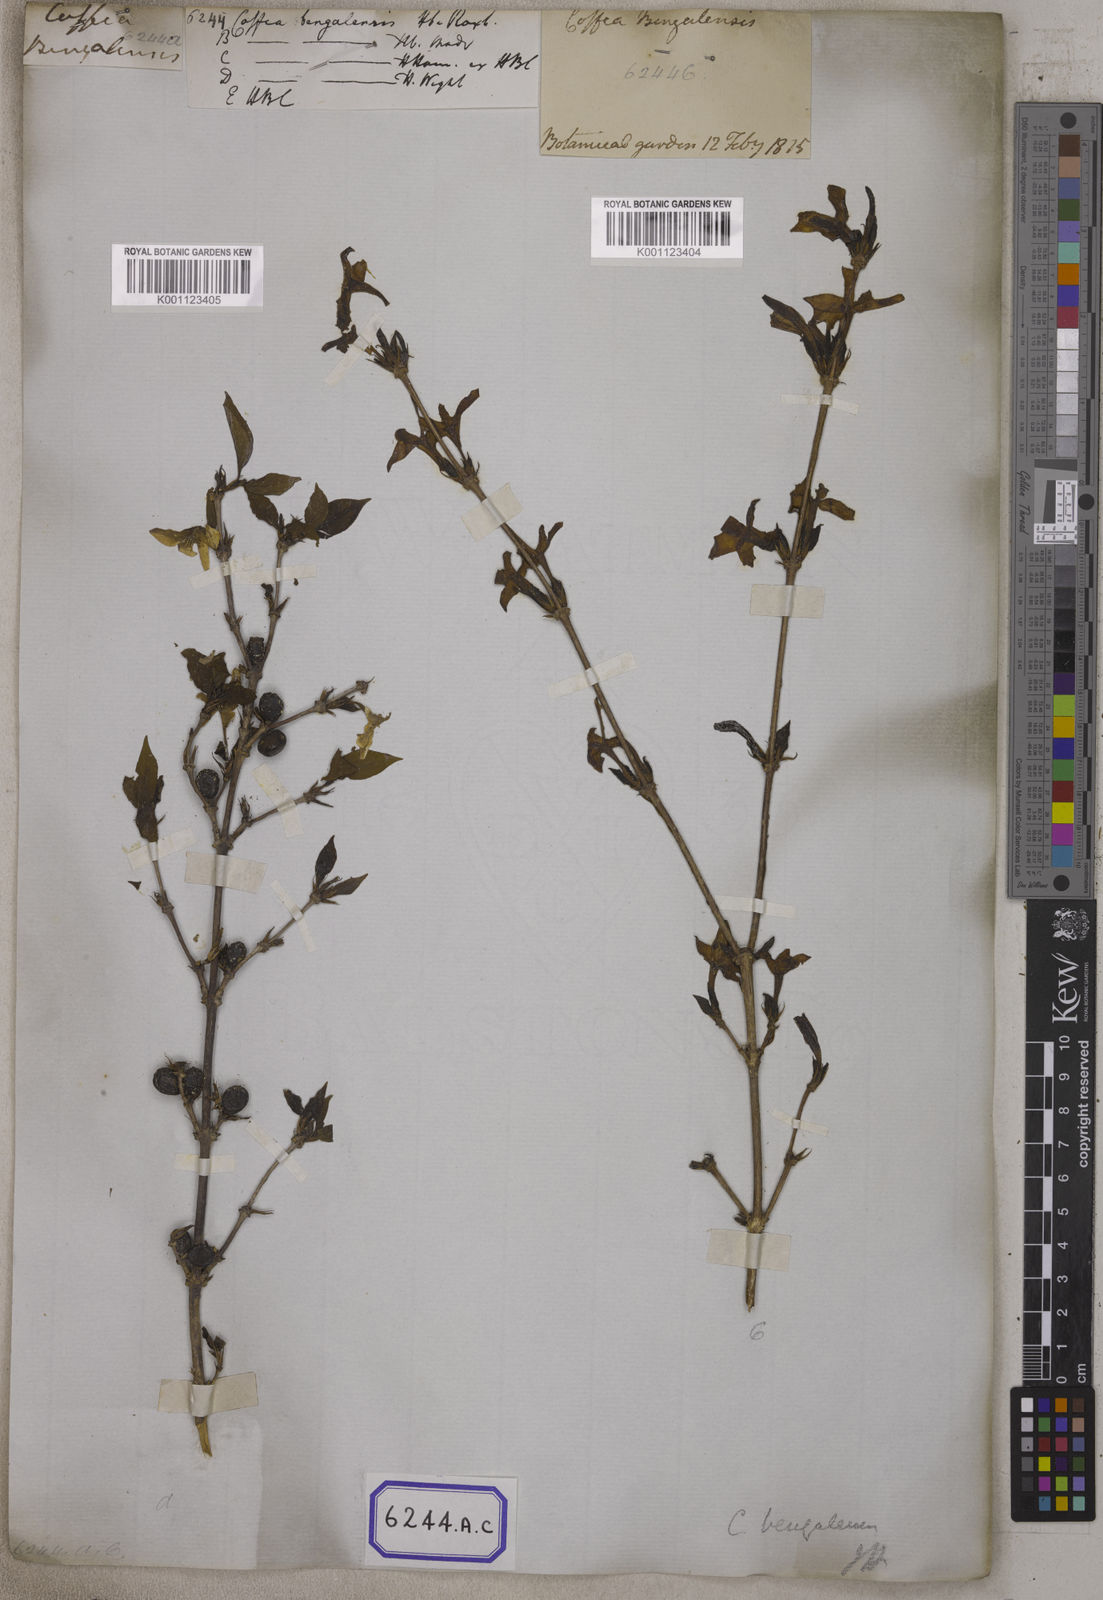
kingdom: Plantae
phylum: Tracheophyta
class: Magnoliopsida
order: Gentianales
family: Rubiaceae
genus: Coffea
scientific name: Coffea
